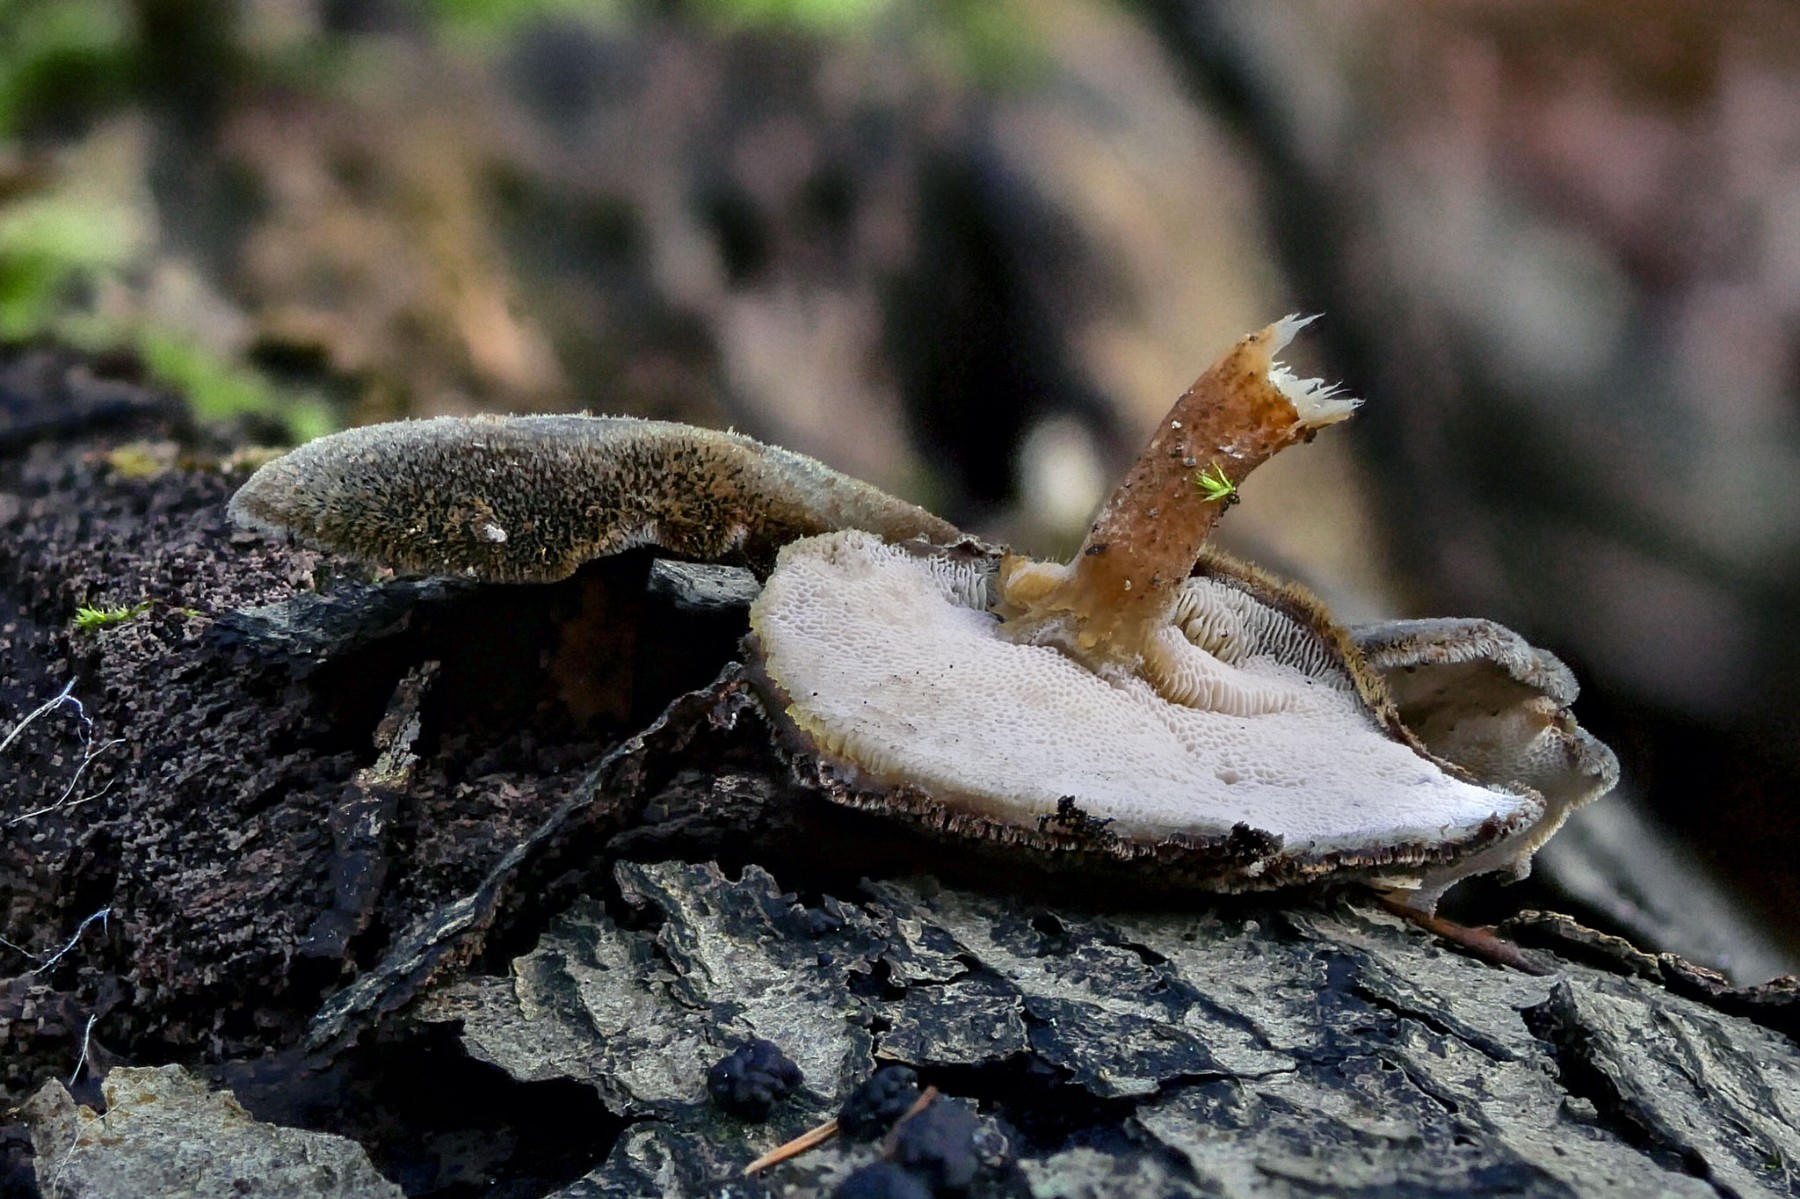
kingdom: Fungi
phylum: Basidiomycota
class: Agaricomycetes
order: Polyporales
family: Polyporaceae
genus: Lentinus
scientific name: Lentinus brumalis
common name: vinter-stilkporesvamp
